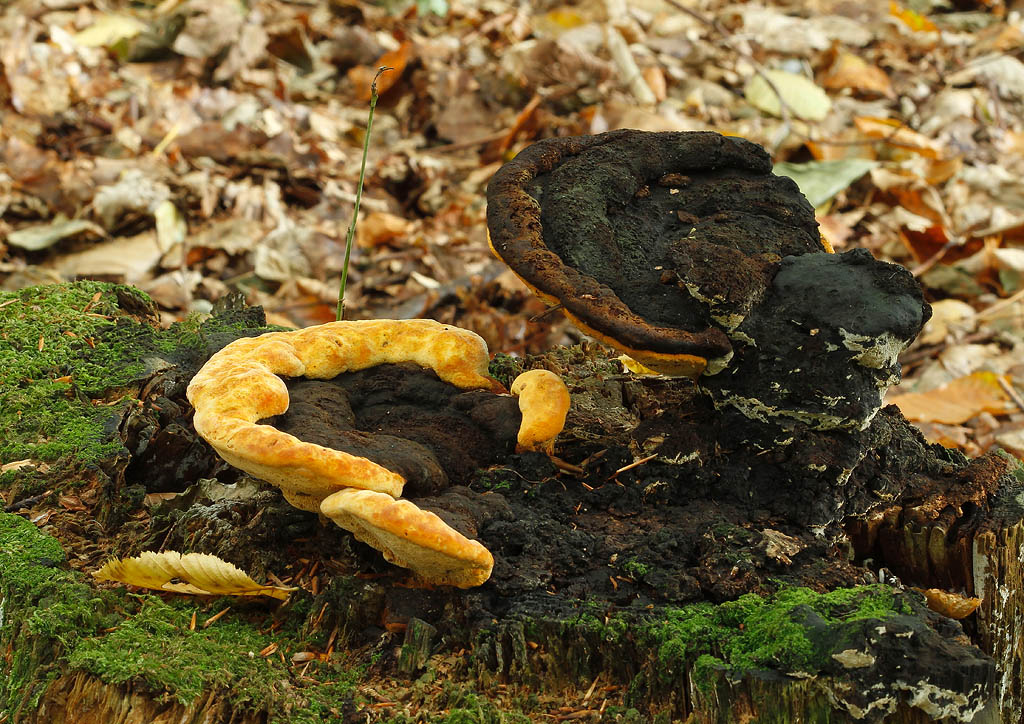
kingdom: Fungi
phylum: Basidiomycota
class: Agaricomycetes
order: Polyporales
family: Laetiporaceae
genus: Phaeolus
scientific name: Phaeolus schweinitzii
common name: brunporesvamp
